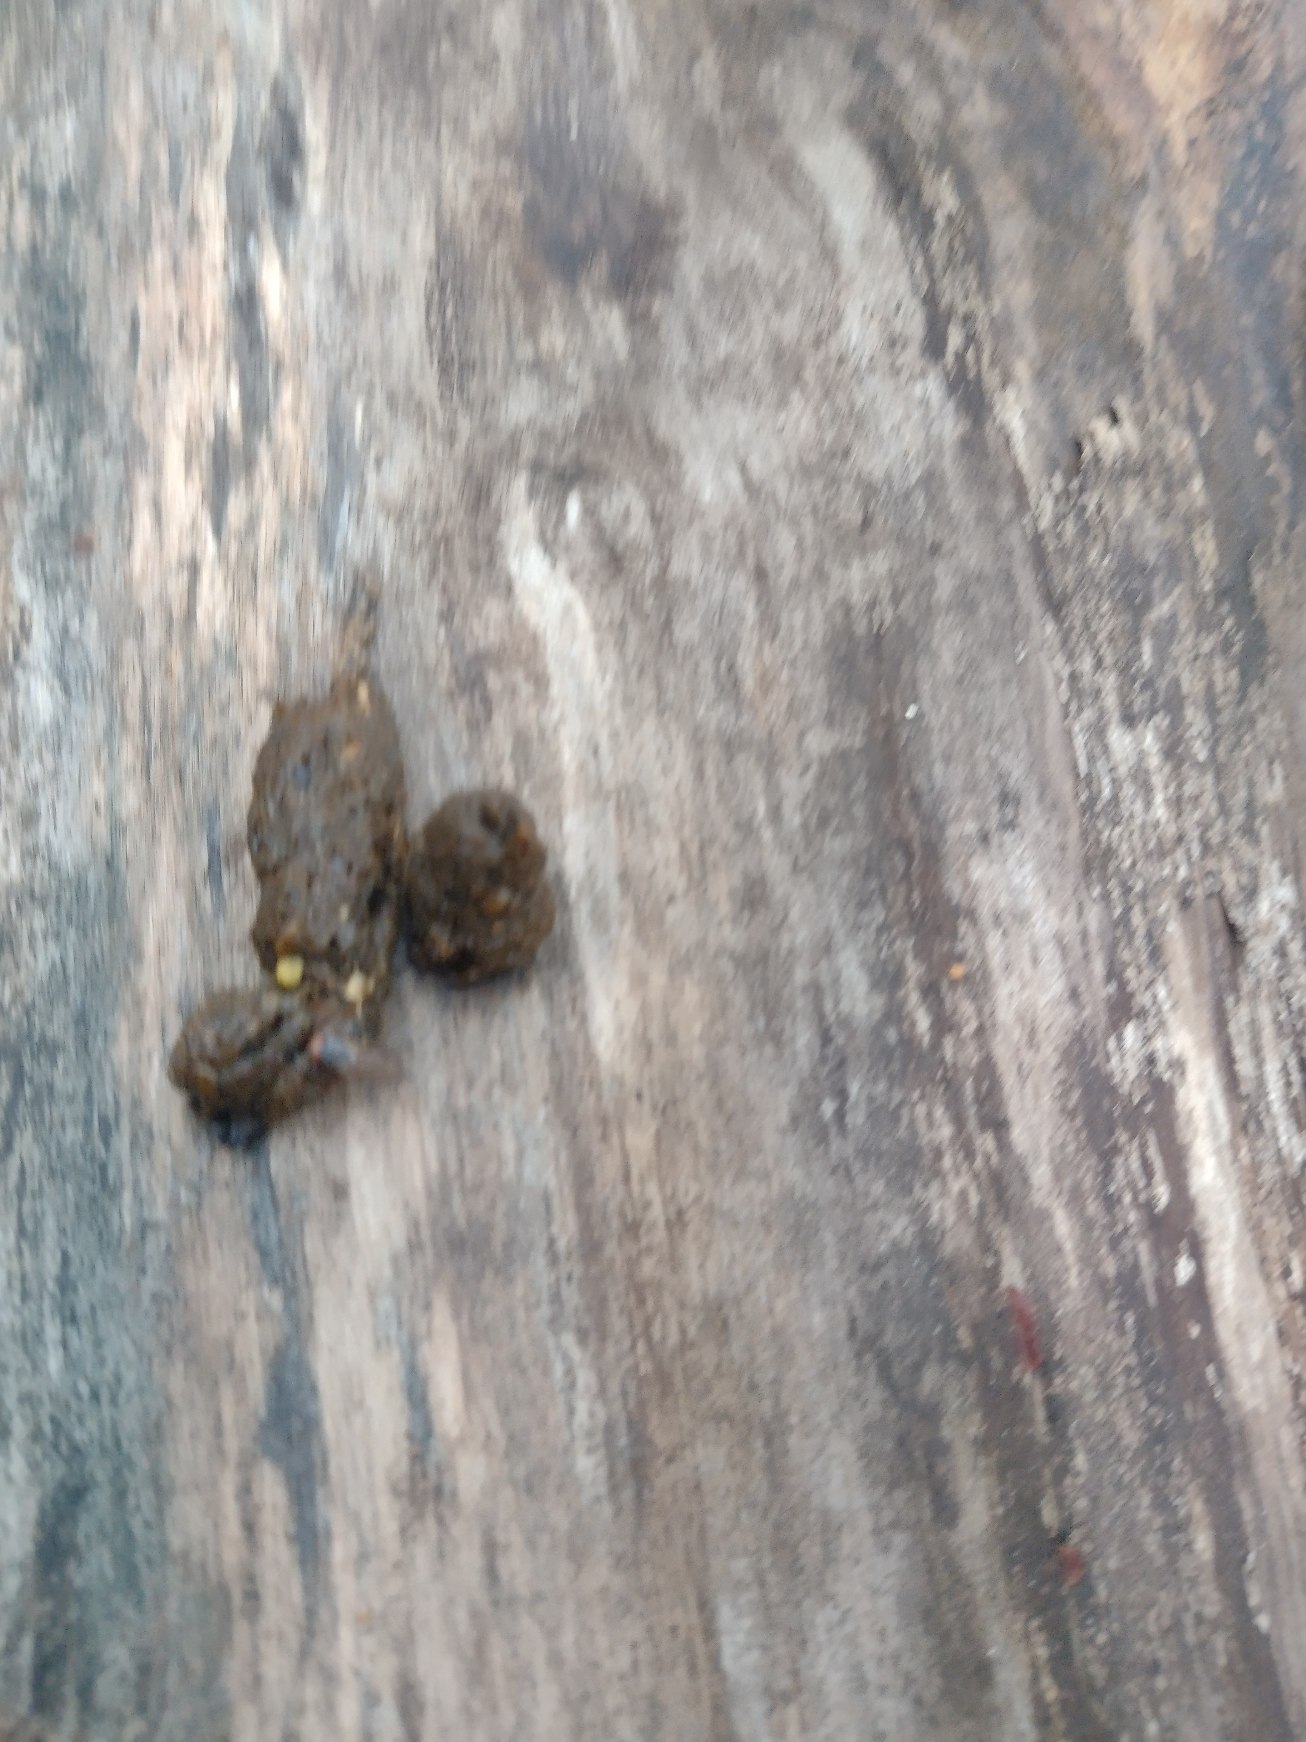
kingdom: Animalia
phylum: Chordata
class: Mammalia
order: Carnivora
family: Canidae
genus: Vulpes
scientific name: Vulpes vulpes
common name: Ræv
